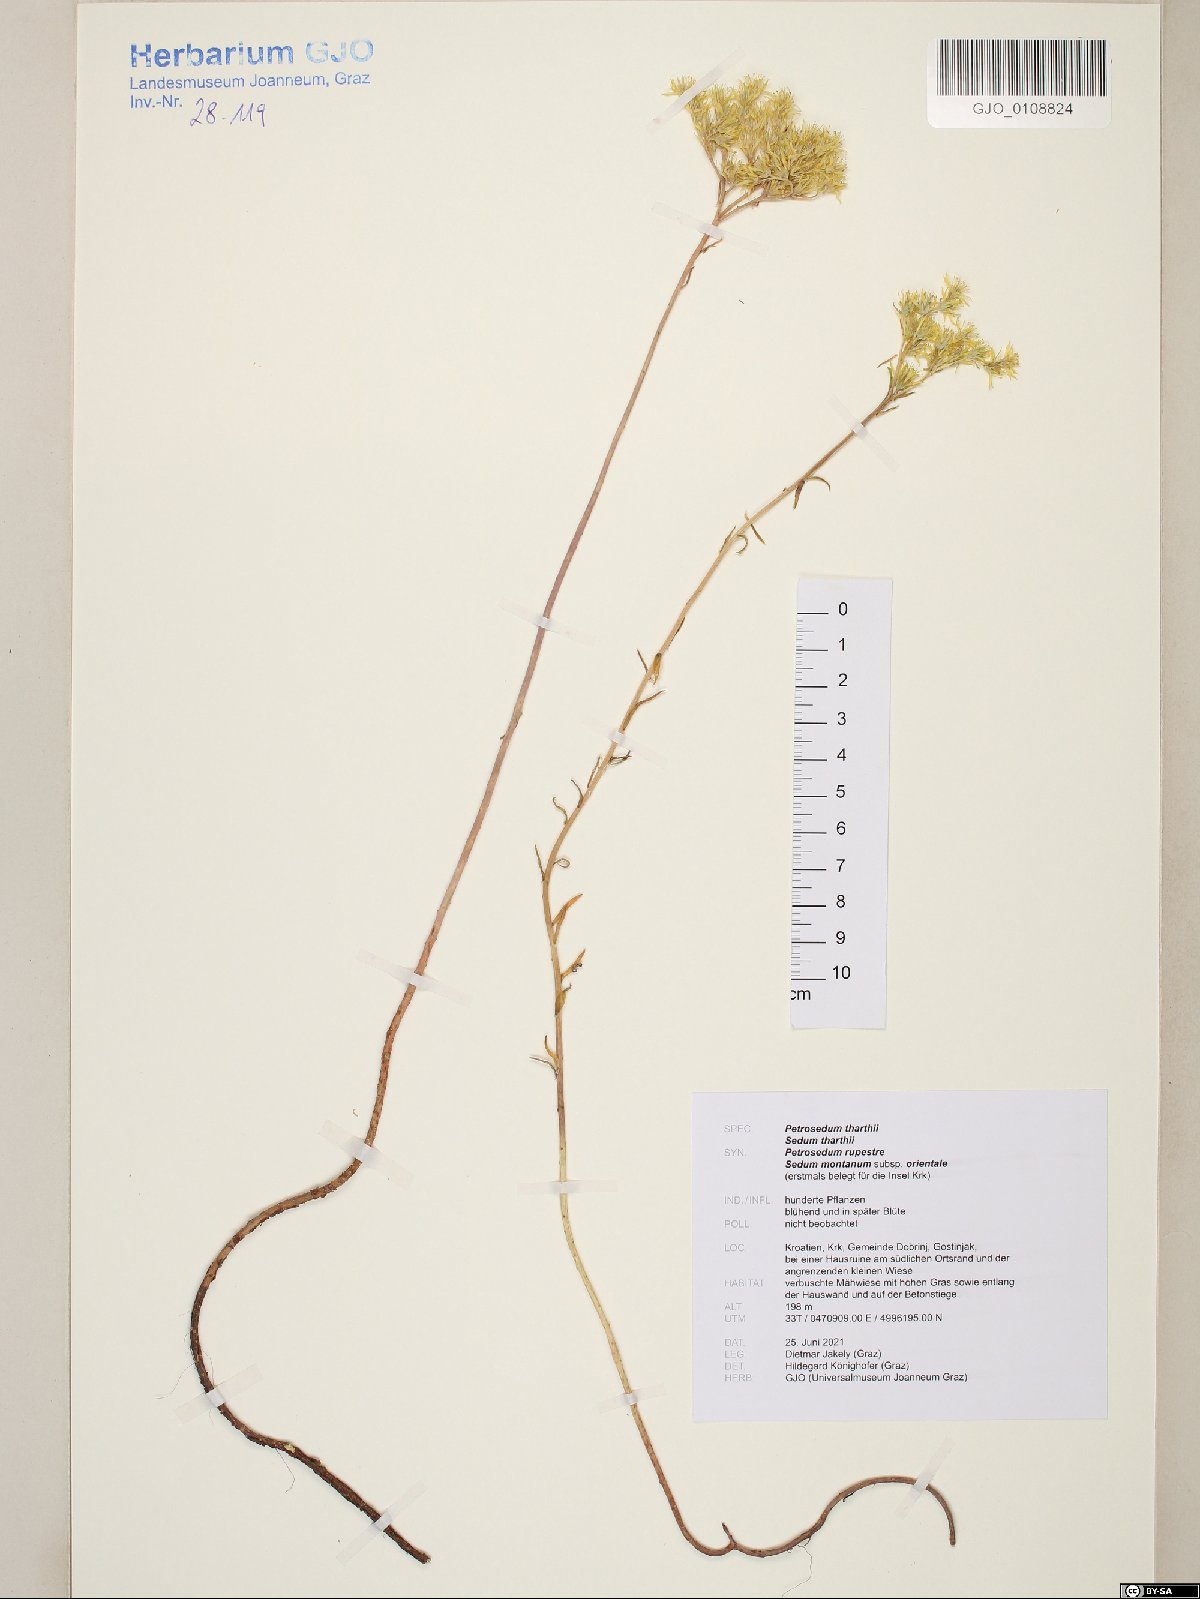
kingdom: Plantae
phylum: Tracheophyta
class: Magnoliopsida
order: Saxifragales
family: Crassulaceae
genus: Petrosedum
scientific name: Petrosedum orientale
